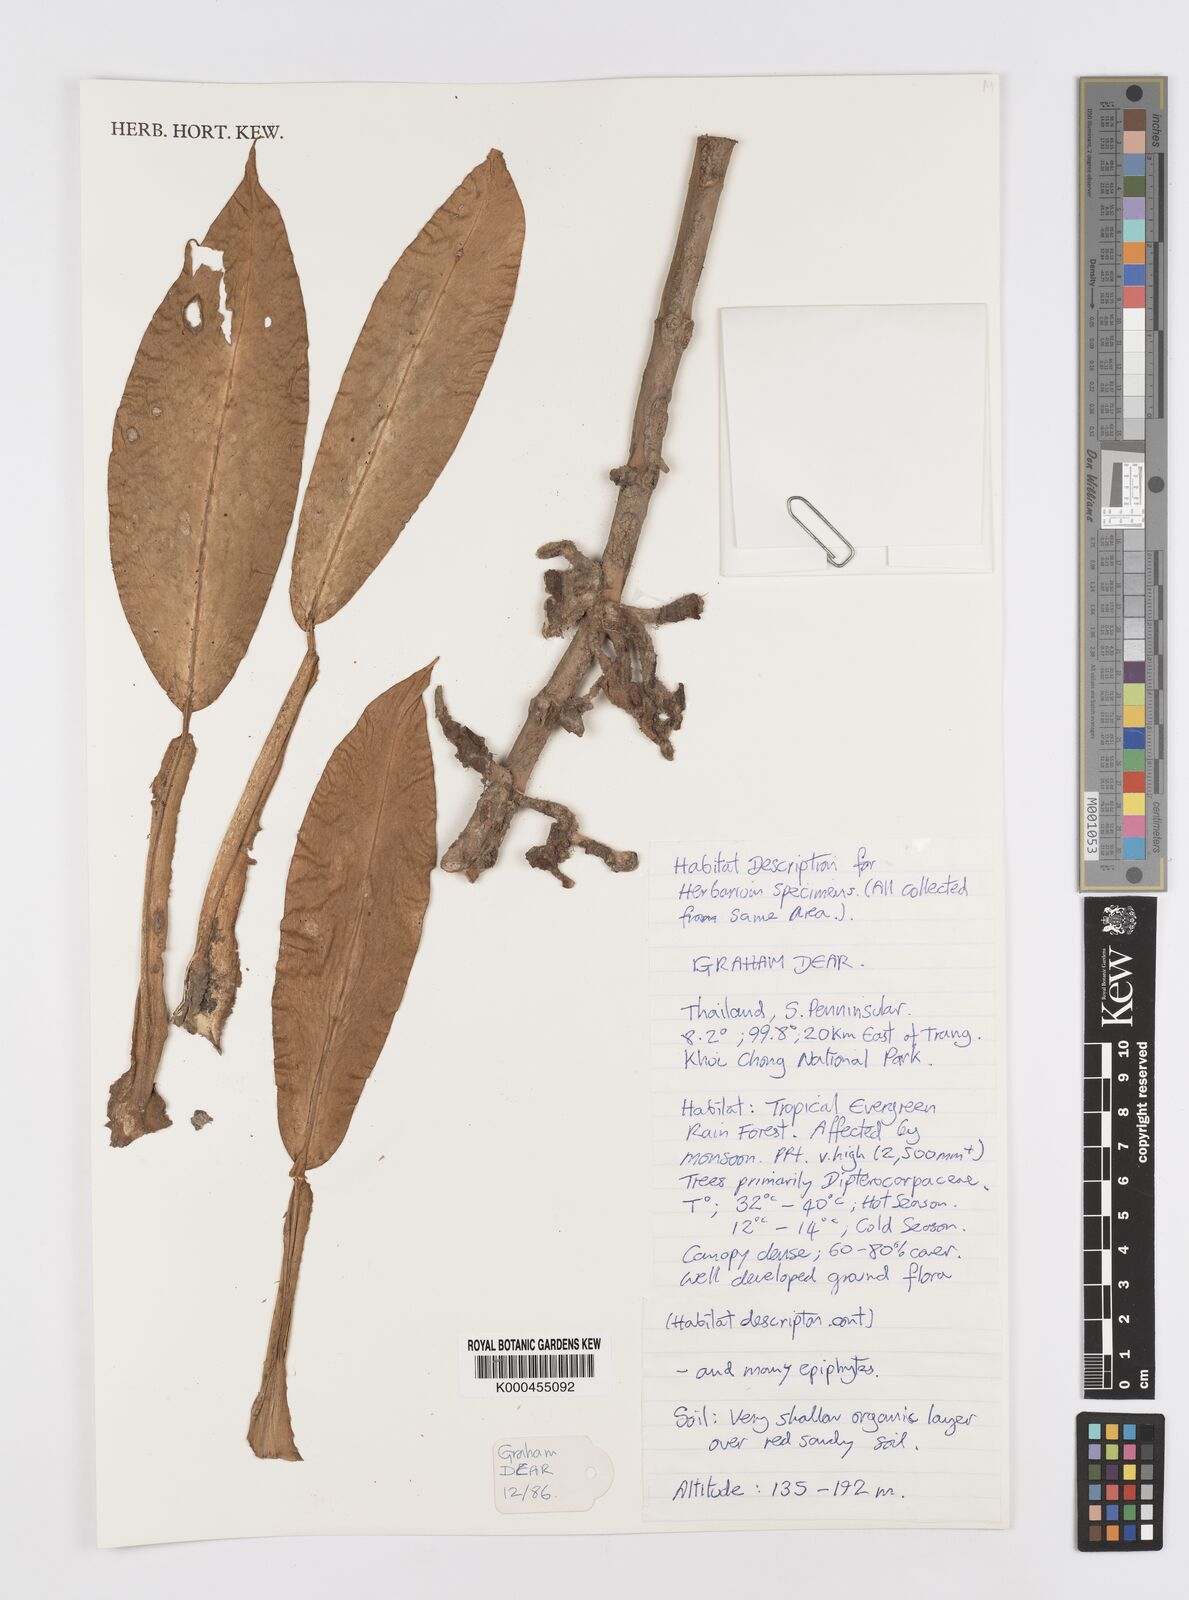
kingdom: Plantae
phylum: Tracheophyta
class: Liliopsida
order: Alismatales
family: Araceae
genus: Scindapsus
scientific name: Scindapsus hederaceus
